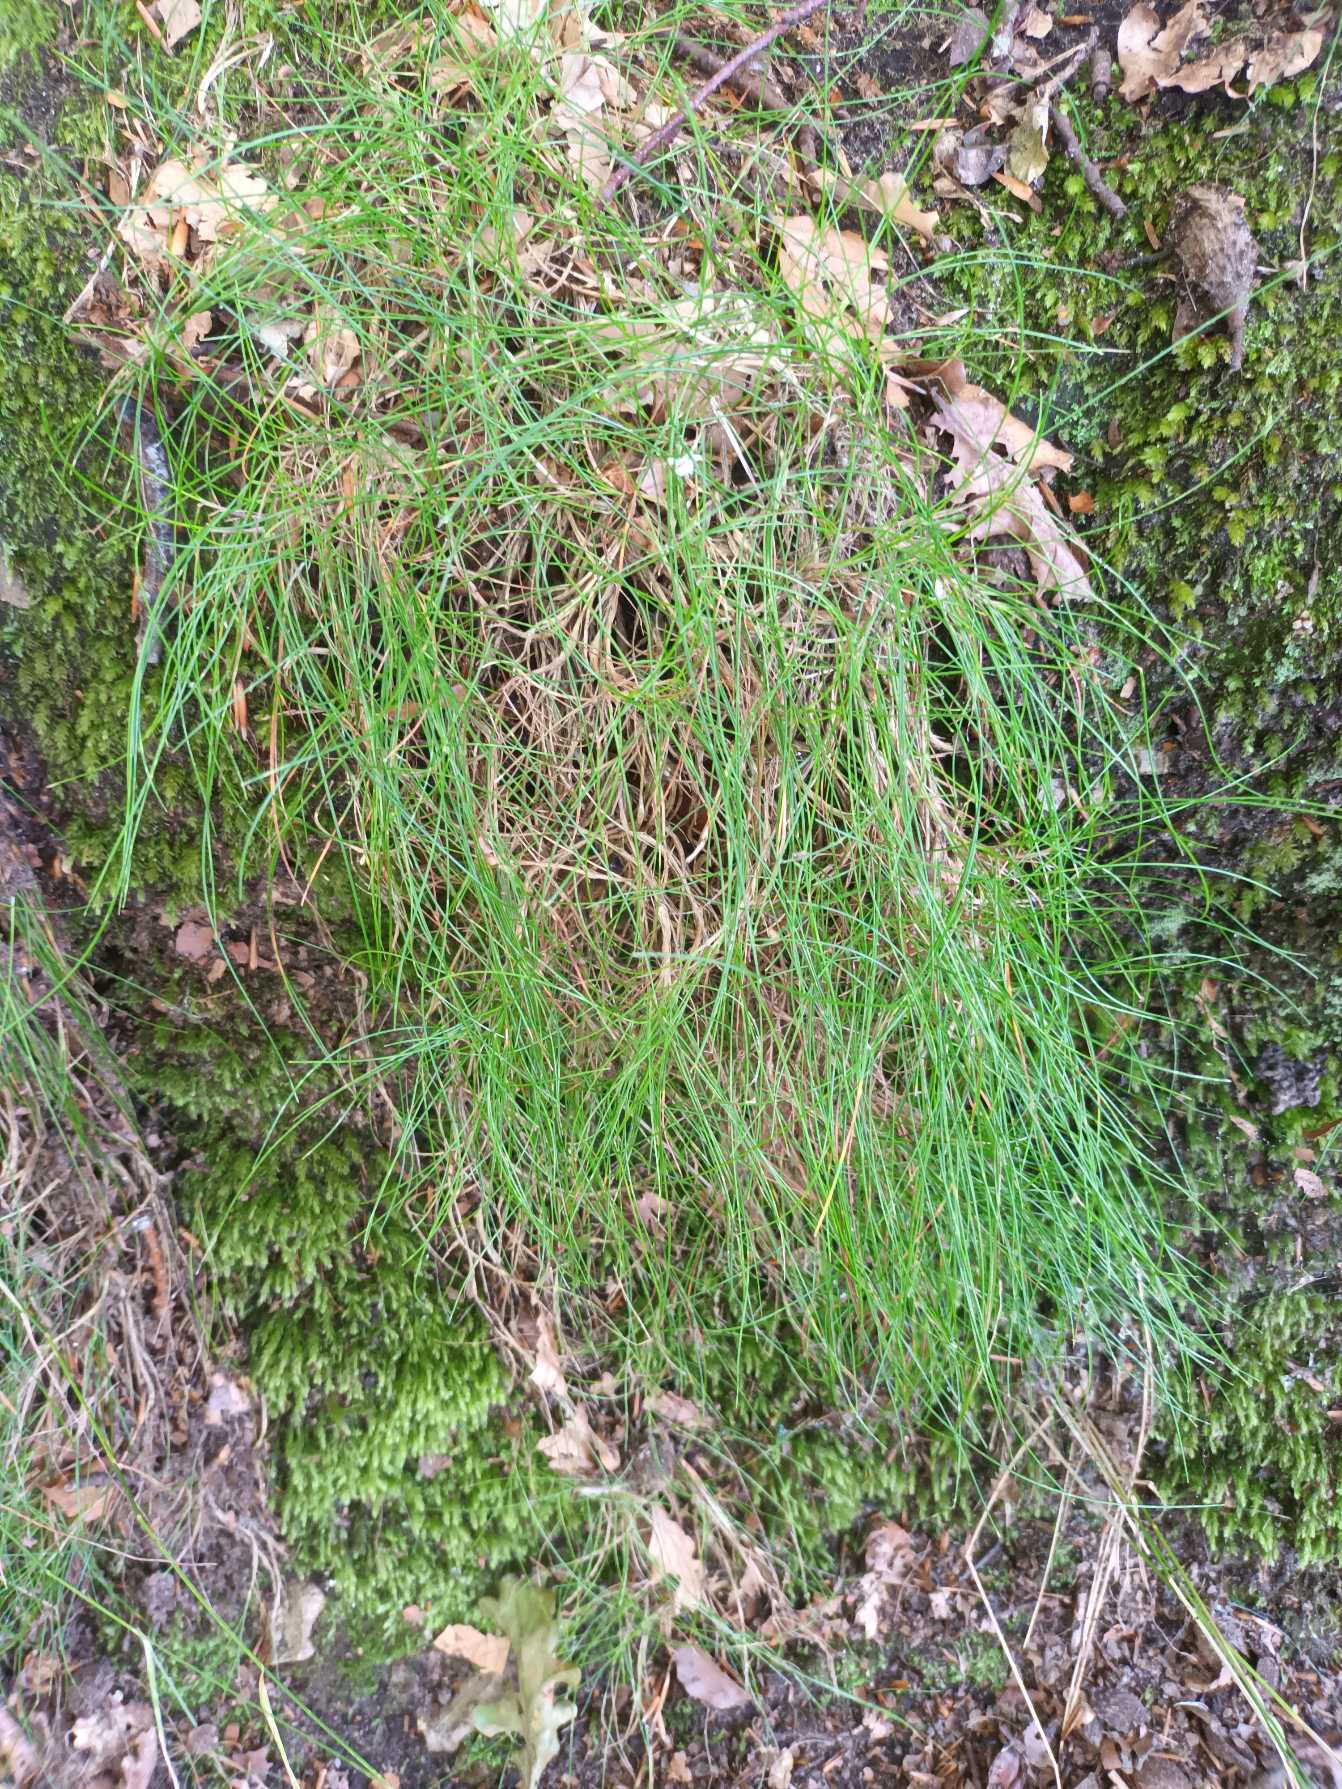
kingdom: Plantae
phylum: Tracheophyta
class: Liliopsida
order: Poales
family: Poaceae
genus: Avenella
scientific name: Avenella flexuosa
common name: Bølget bunke
